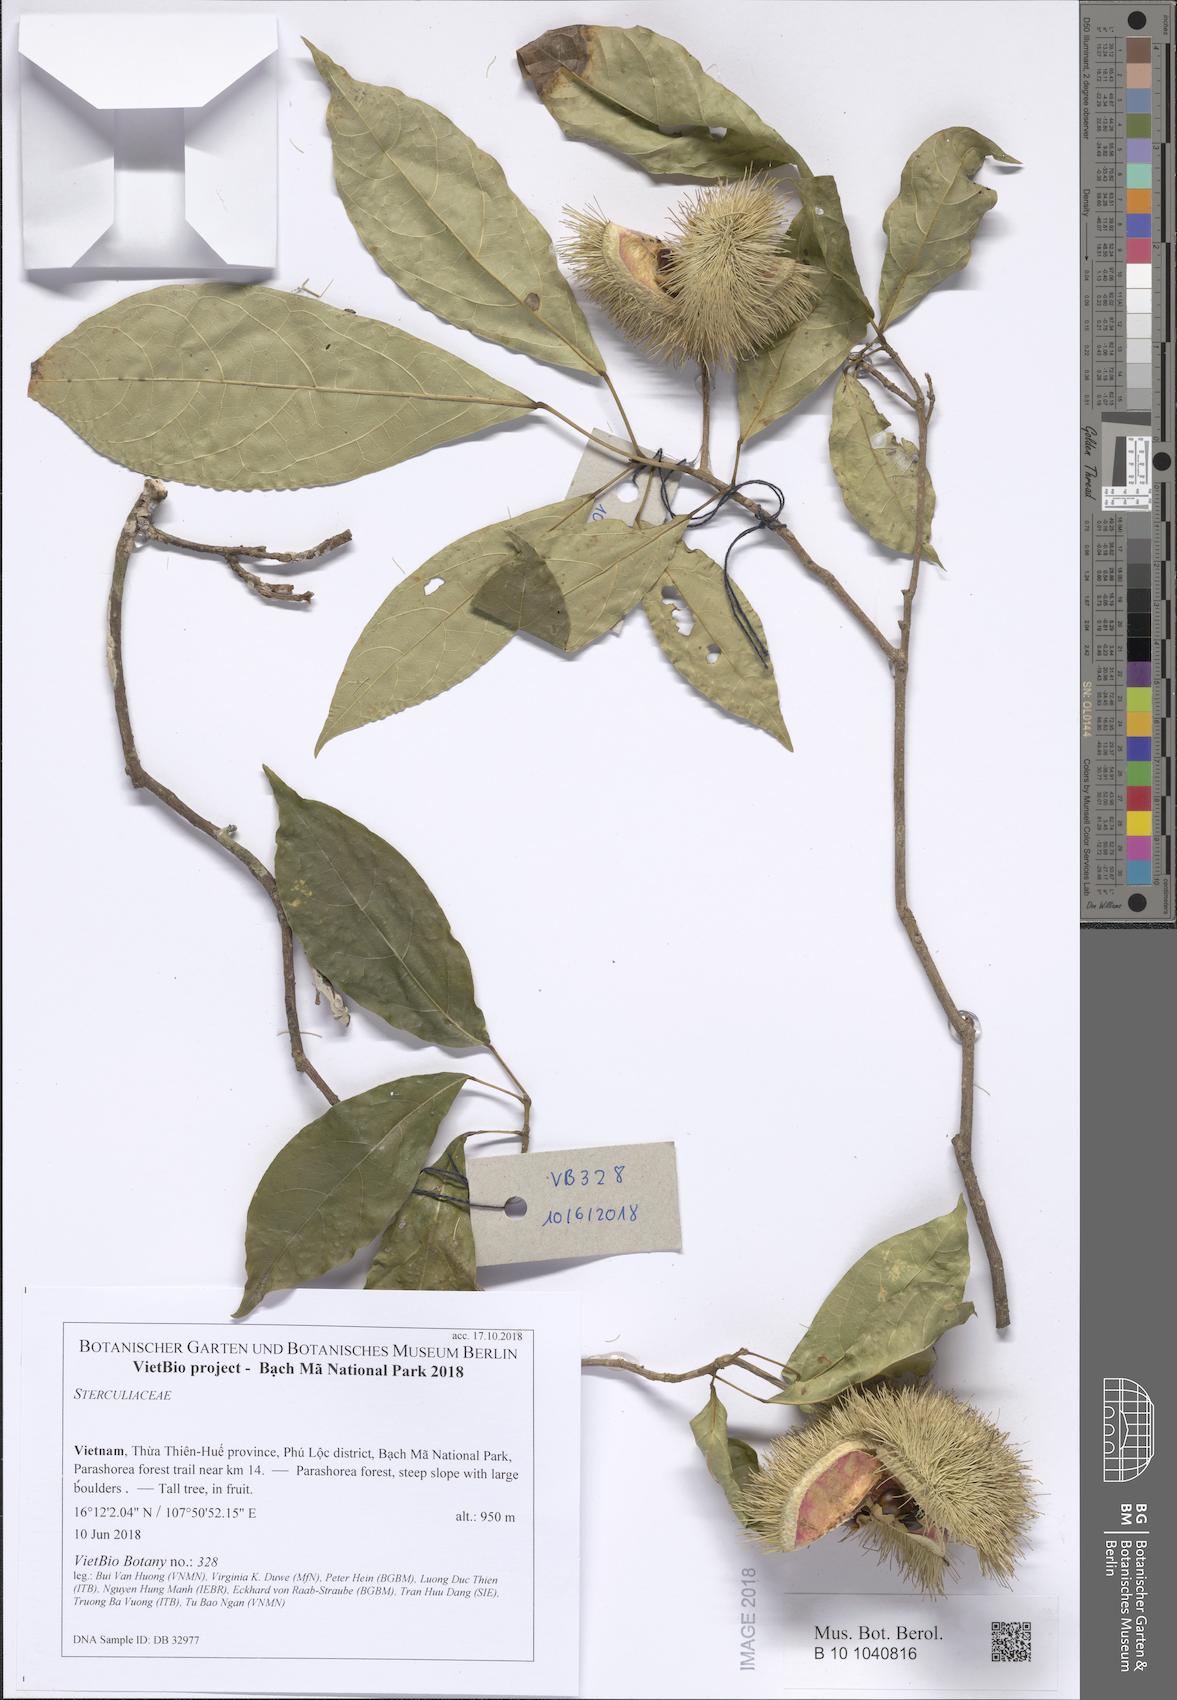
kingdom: Plantae
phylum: Tracheophyta
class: Magnoliopsida
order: Malvales
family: Sterculiaceae
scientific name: Sterculiaceae
